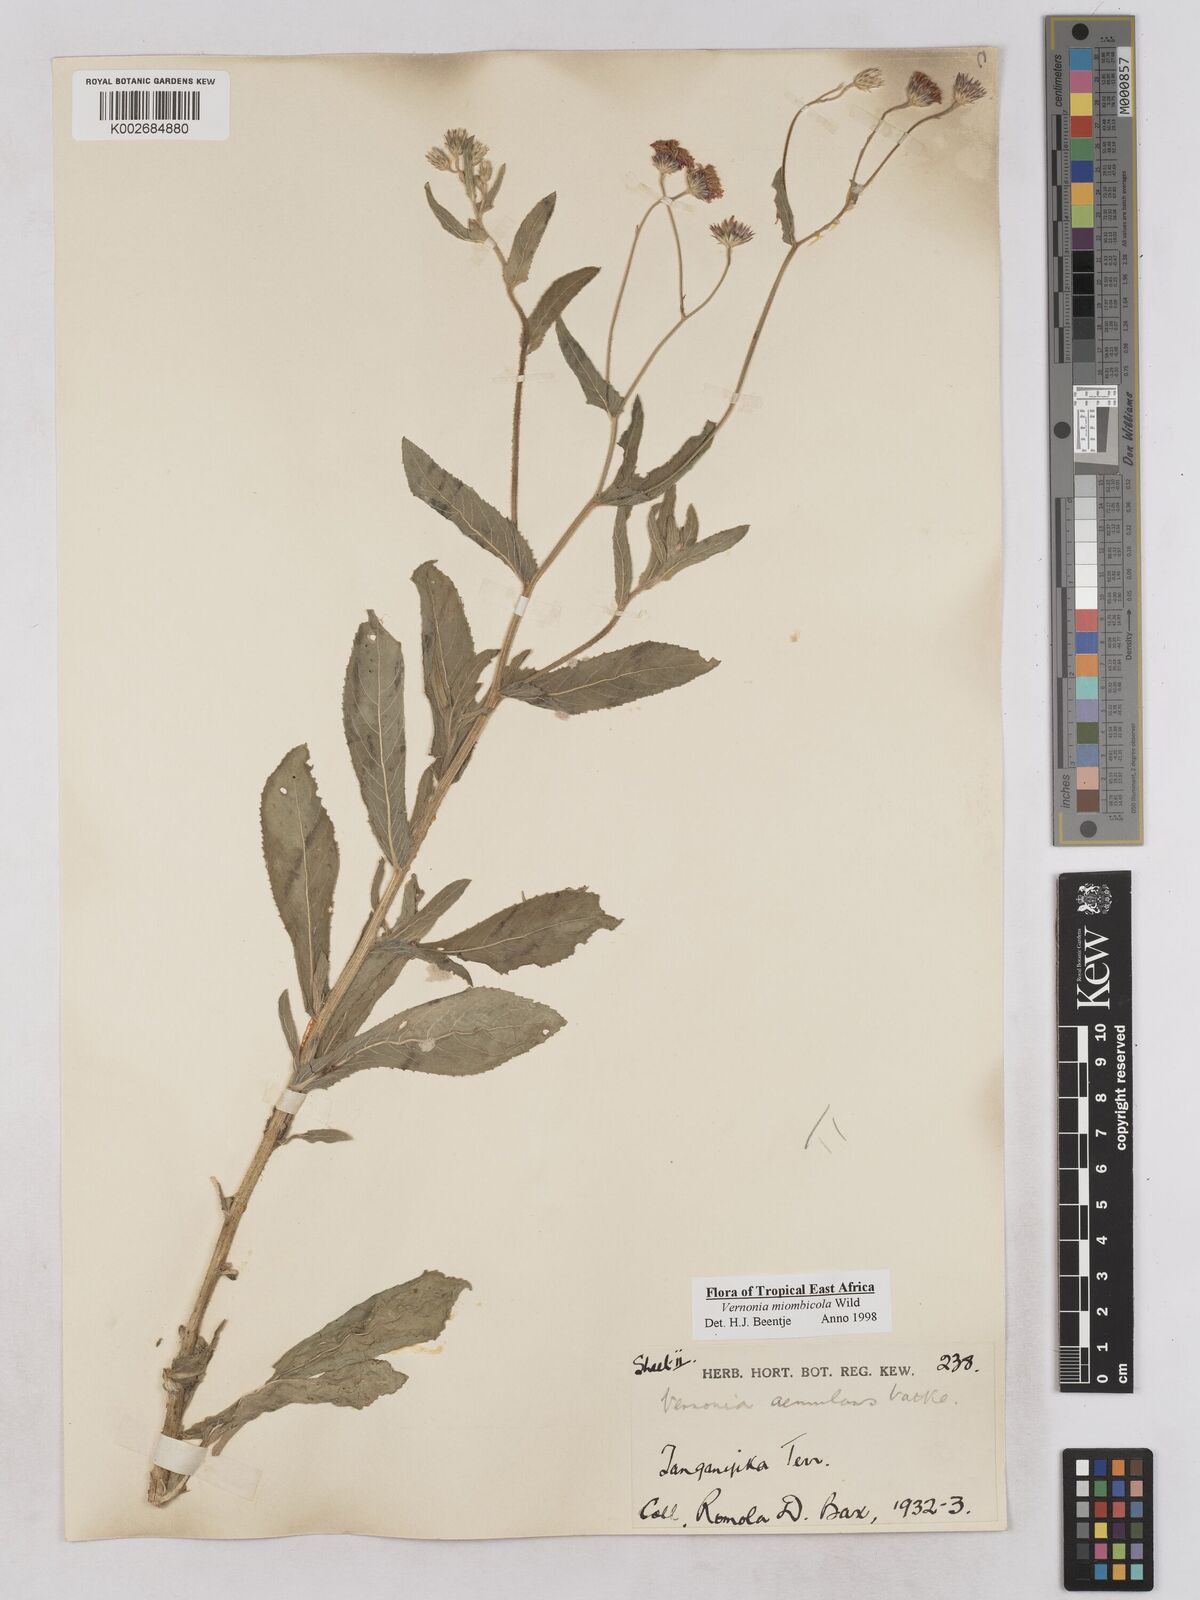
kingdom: Plantae
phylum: Tracheophyta
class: Magnoliopsida
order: Asterales
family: Asteraceae
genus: Vernonia
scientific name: Vernonia miombicola
